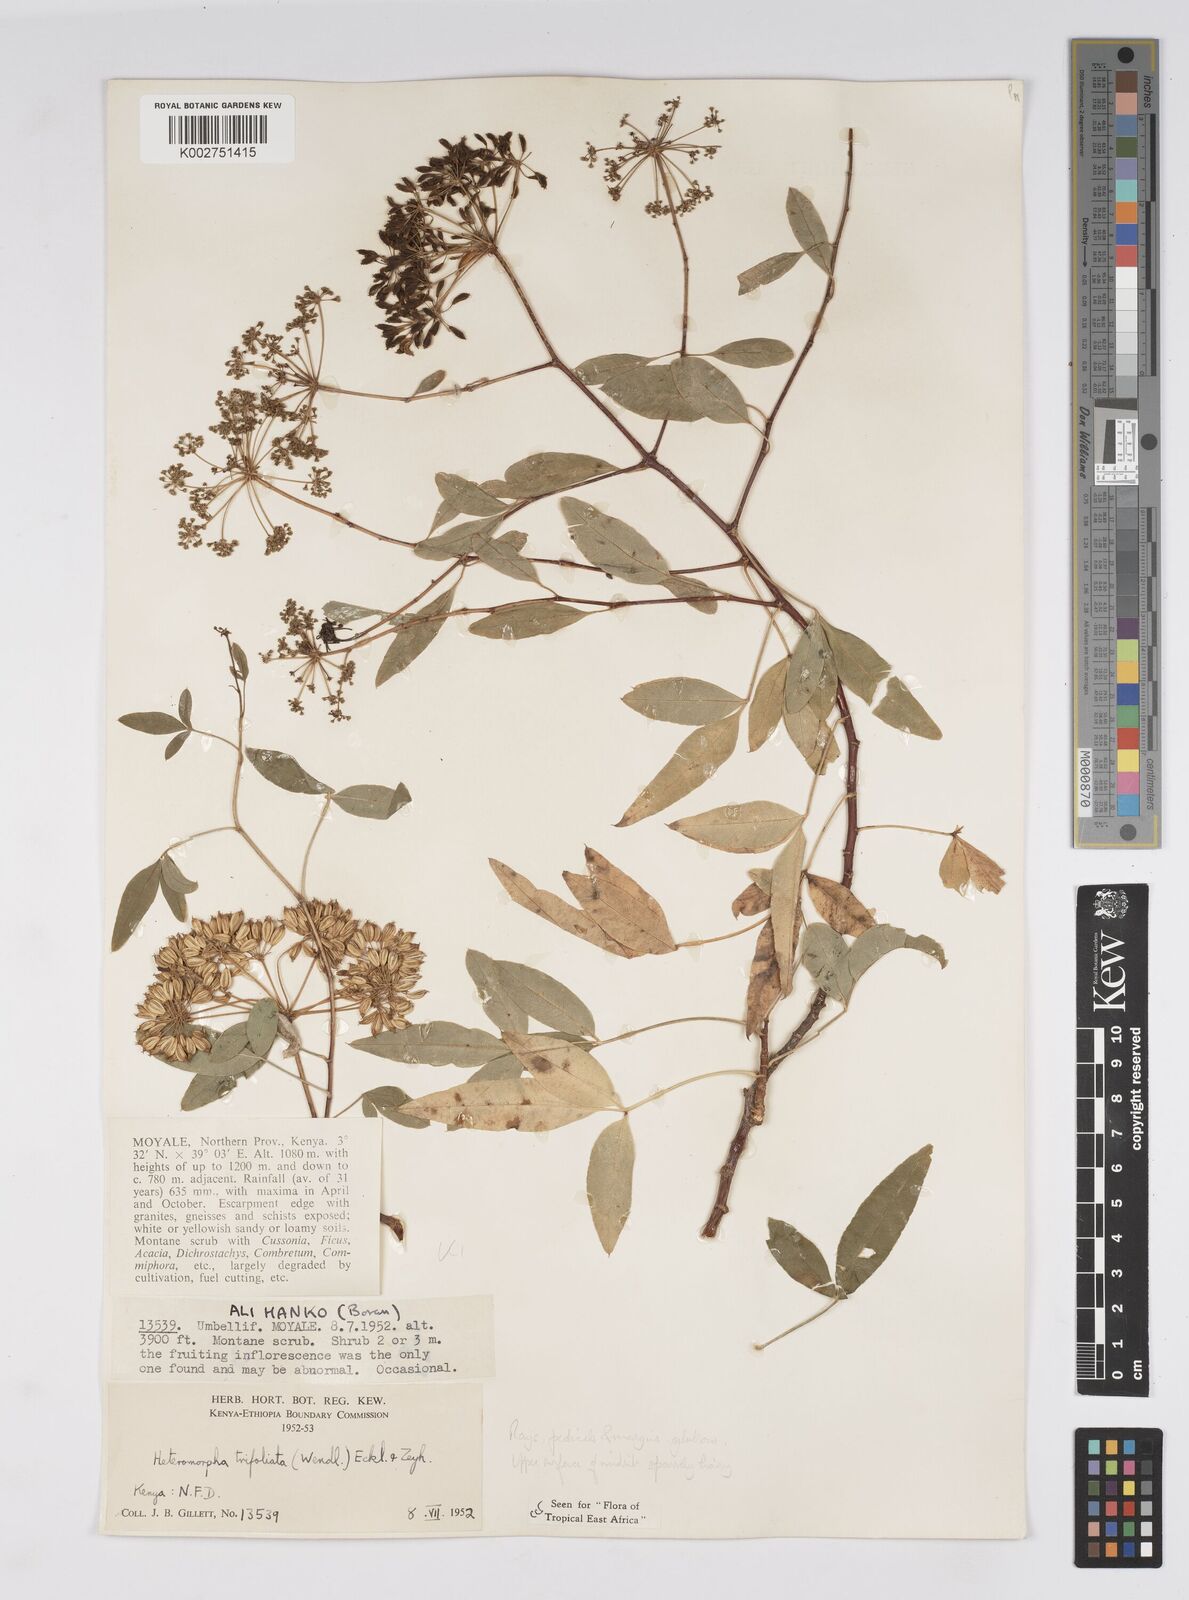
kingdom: Plantae
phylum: Tracheophyta
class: Magnoliopsida
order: Apiales
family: Apiaceae
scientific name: Apiaceae
